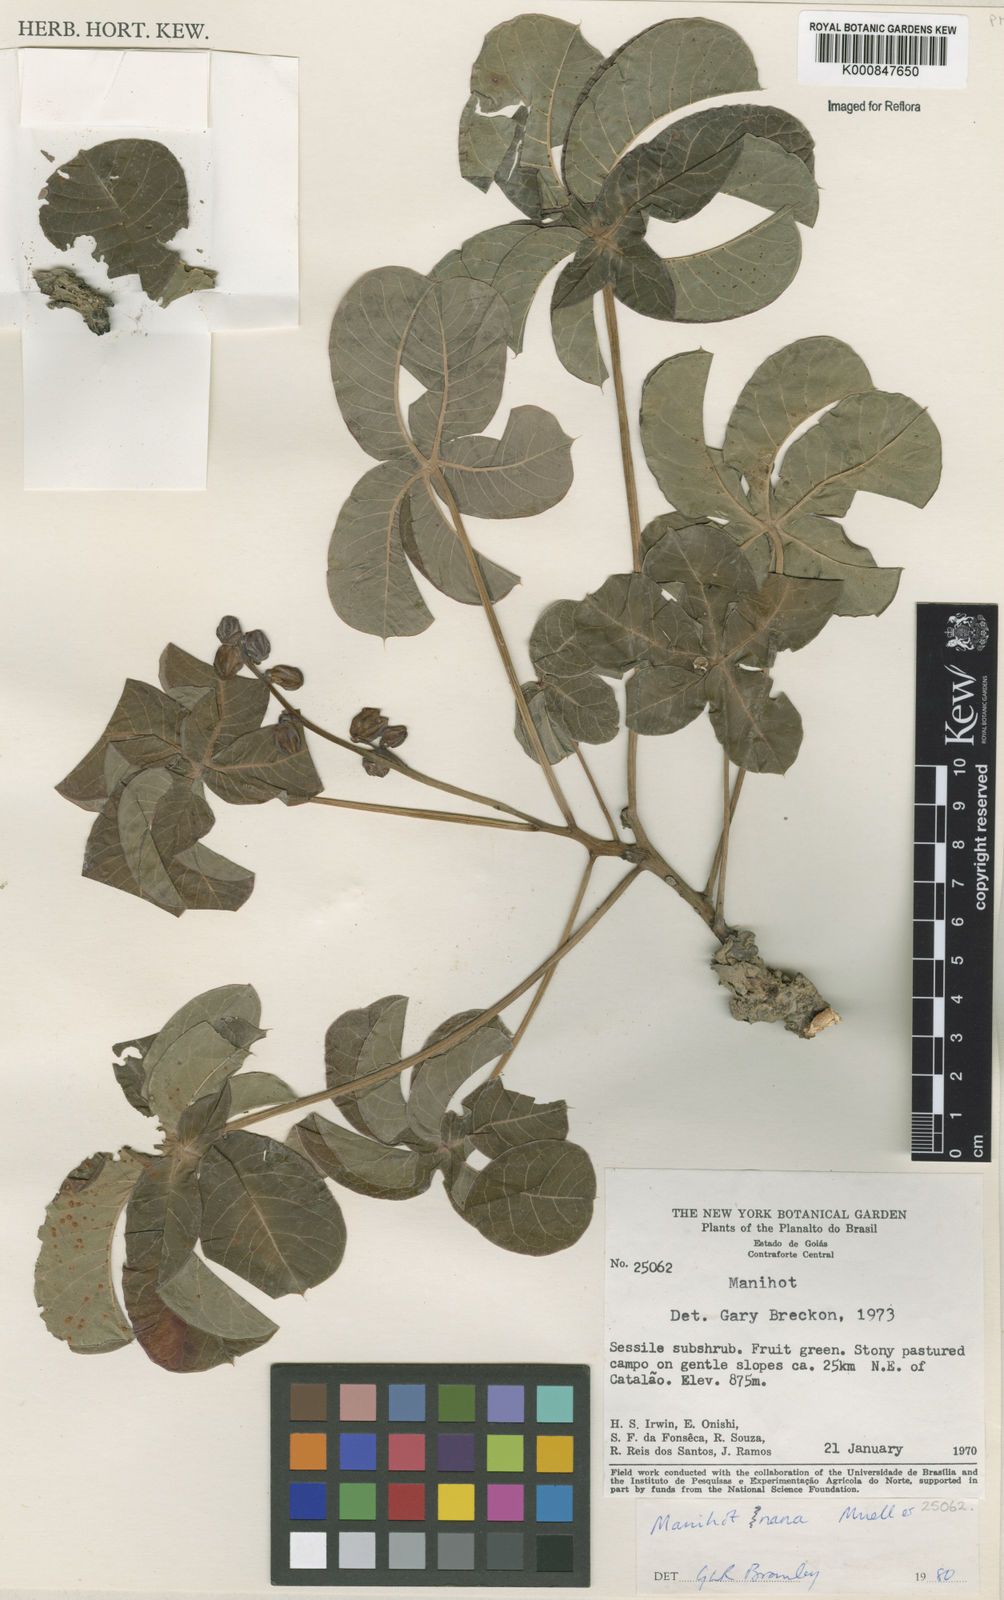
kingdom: Plantae
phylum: Tracheophyta
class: Magnoliopsida
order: Malpighiales
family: Euphorbiaceae
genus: Manihot
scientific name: Manihot
